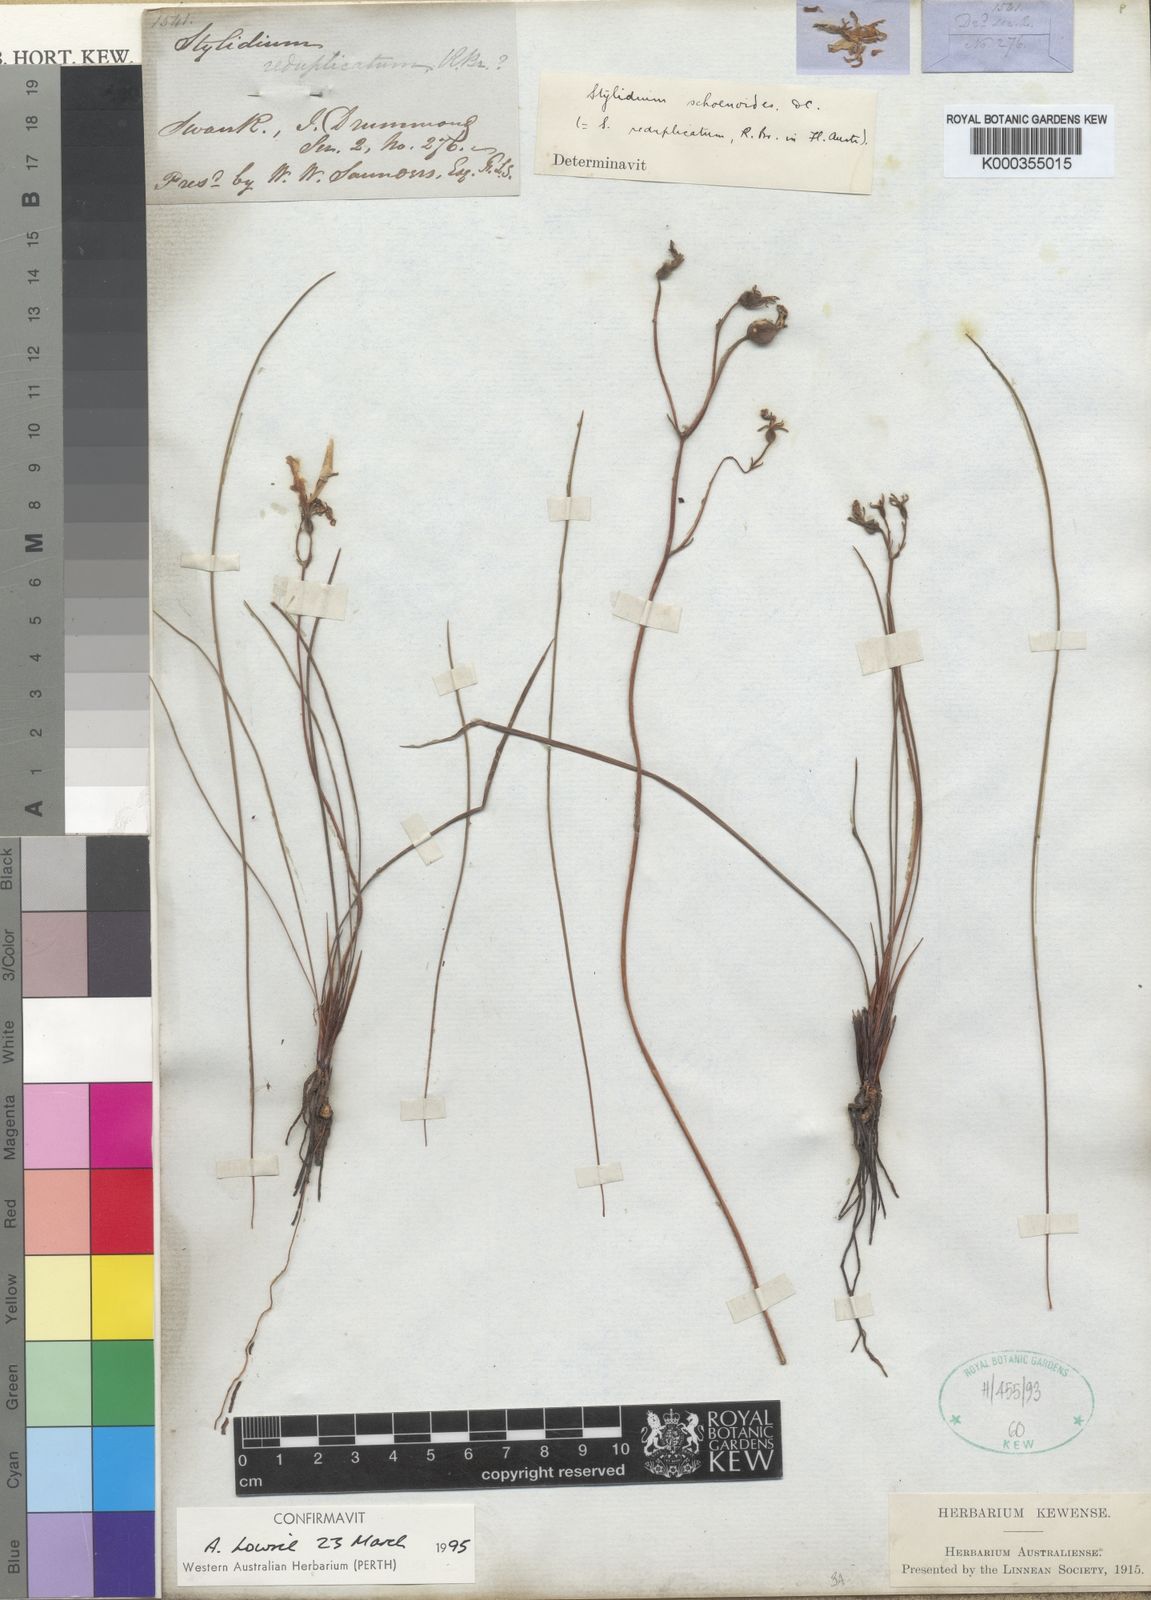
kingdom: Plantae
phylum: Tracheophyta
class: Magnoliopsida
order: Asterales
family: Stylidiaceae
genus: Stylidium
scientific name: Stylidium schoenoides
